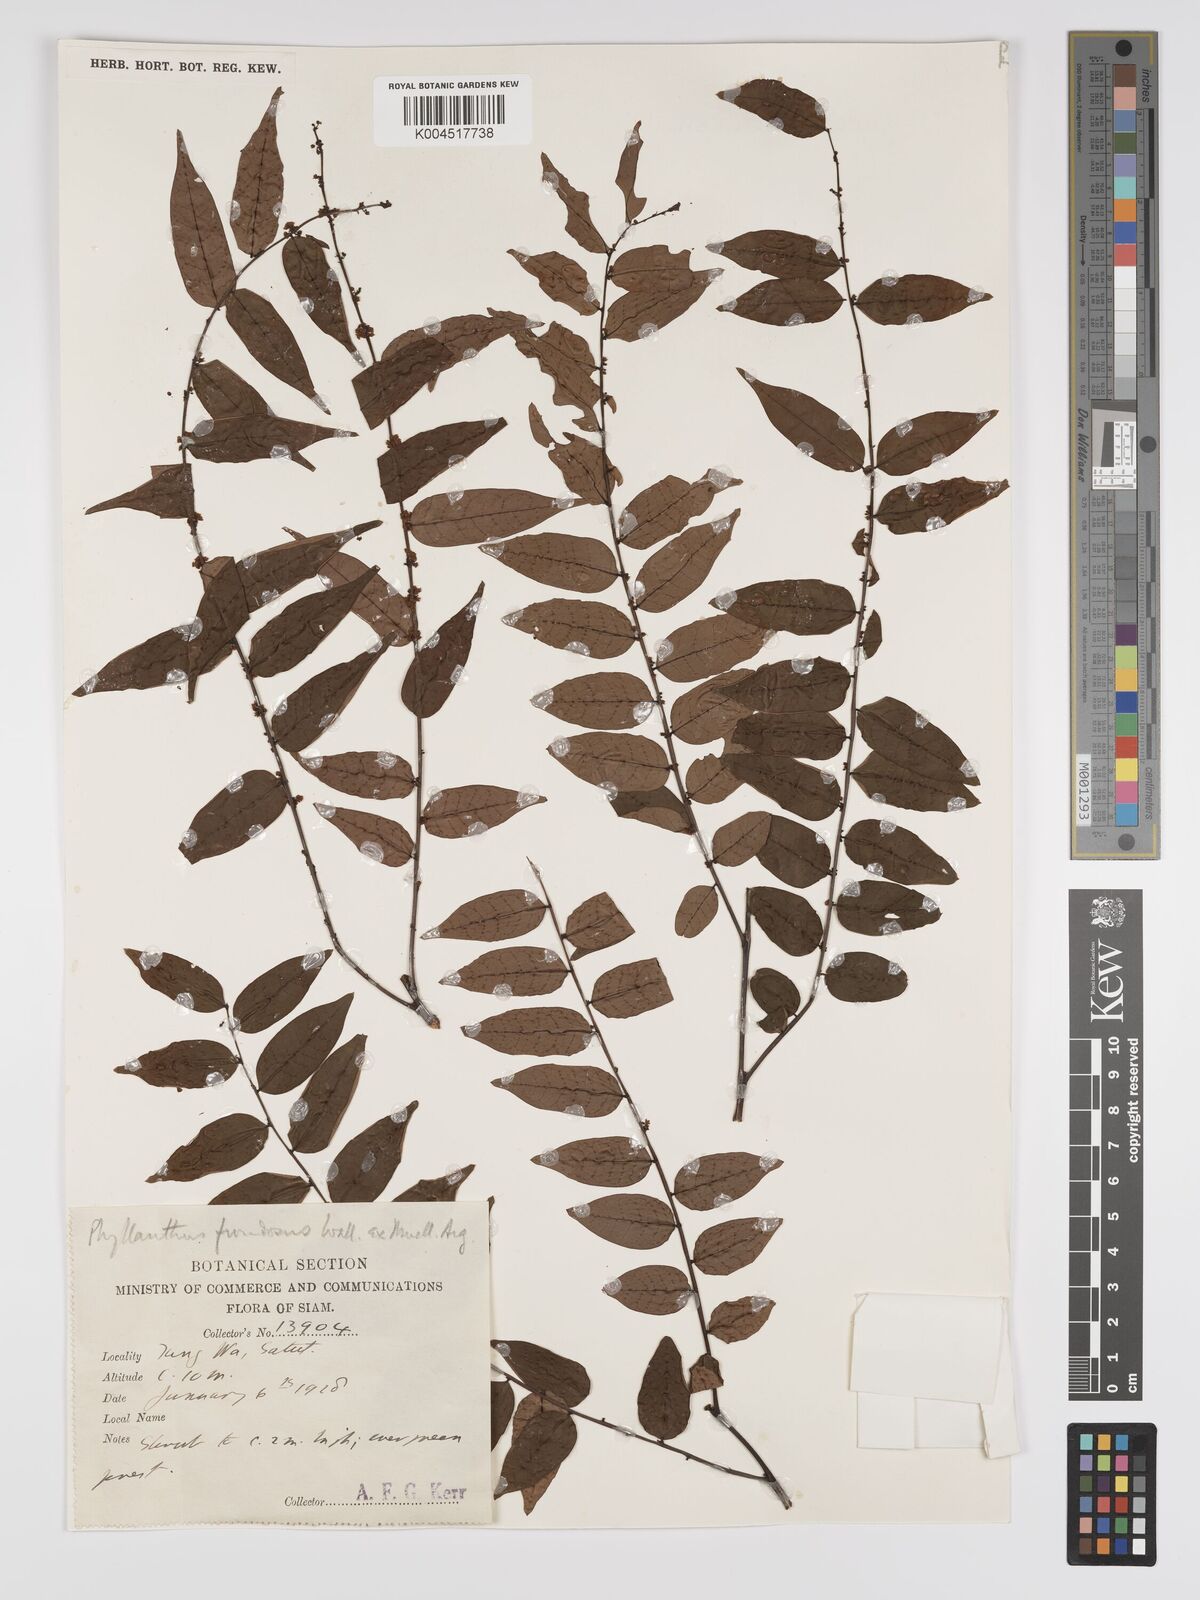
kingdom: Plantae
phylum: Tracheophyta
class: Magnoliopsida
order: Malpighiales
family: Phyllanthaceae
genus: Phyllanthus
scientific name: Phyllanthus
